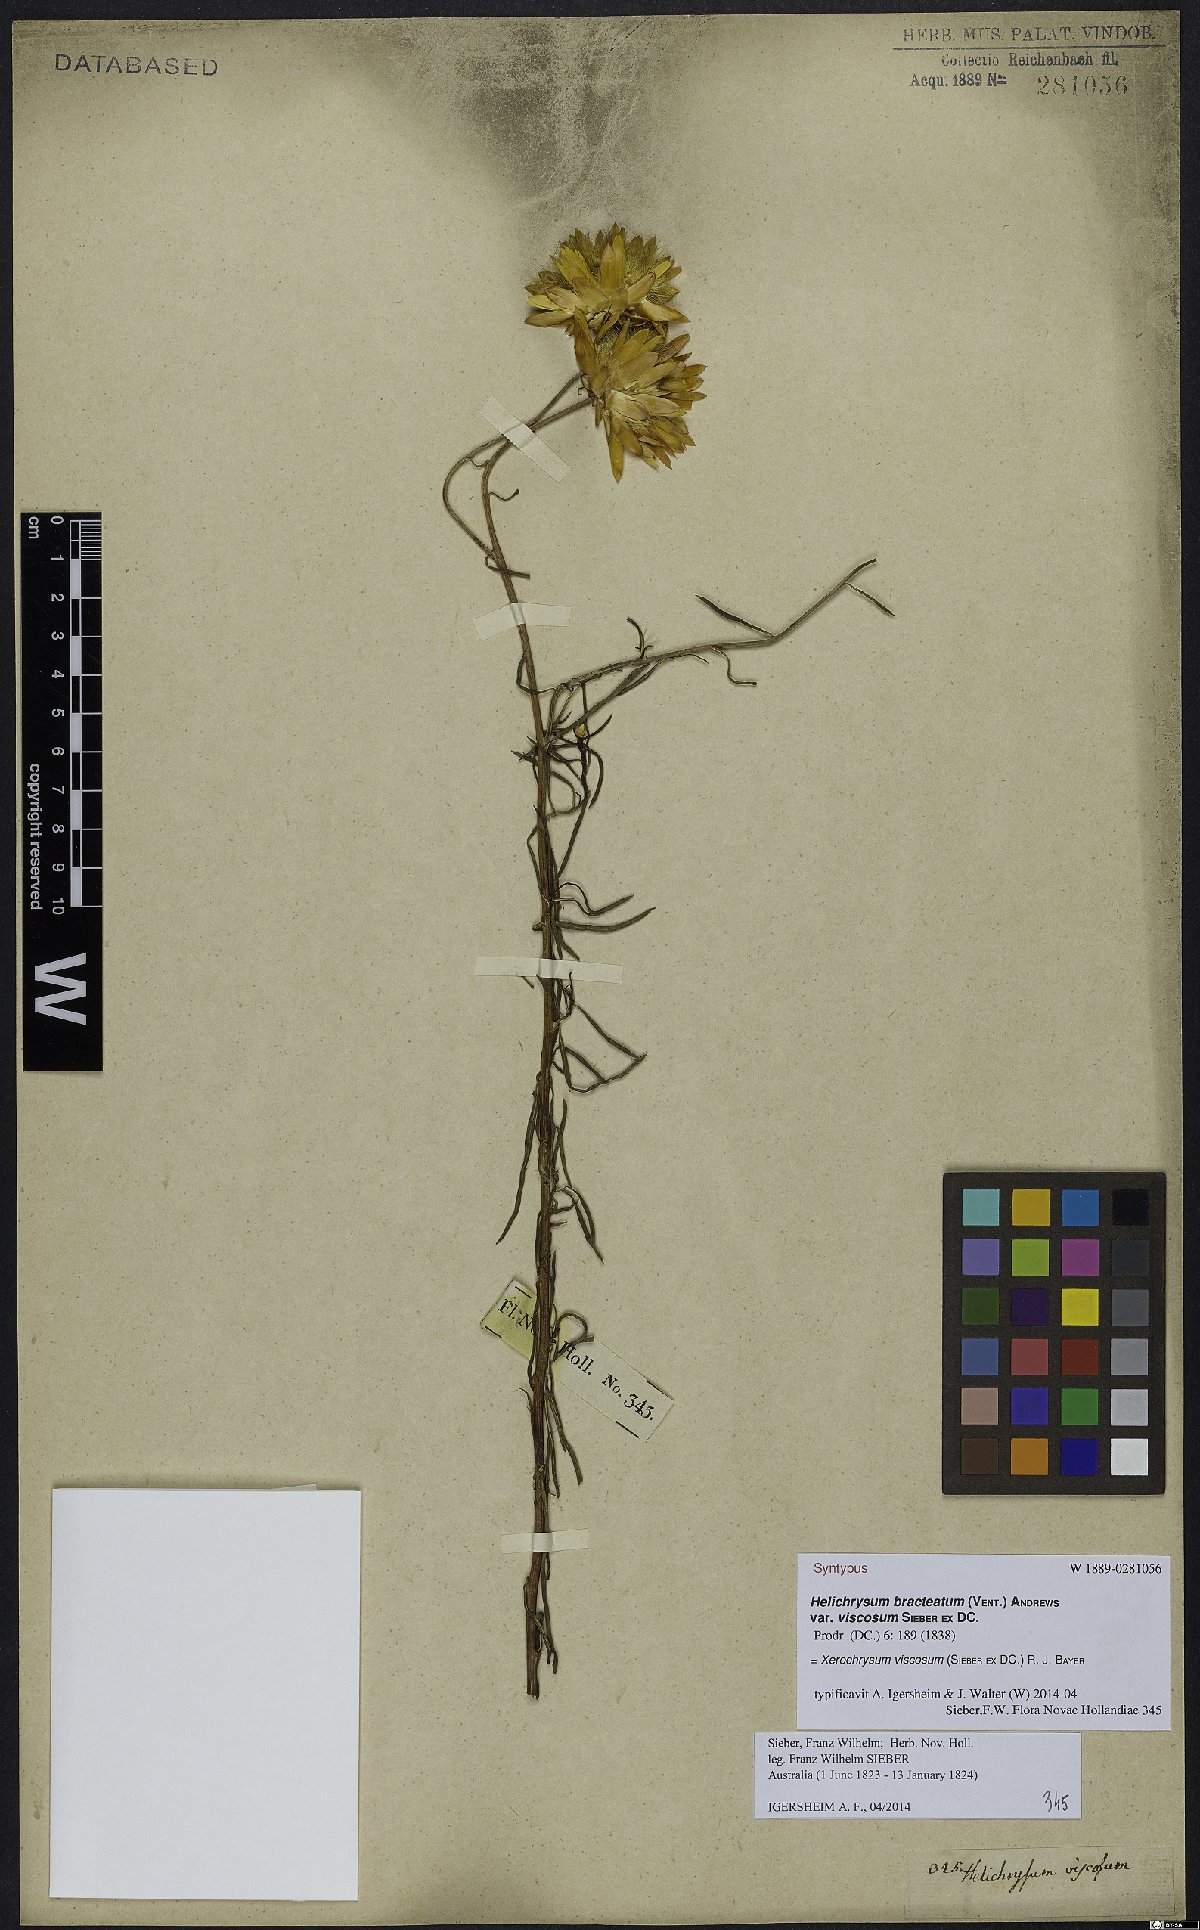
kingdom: Plantae
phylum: Tracheophyta
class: Magnoliopsida
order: Asterales
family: Asteraceae
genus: Xerochrysum
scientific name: Xerochrysum viscosum
